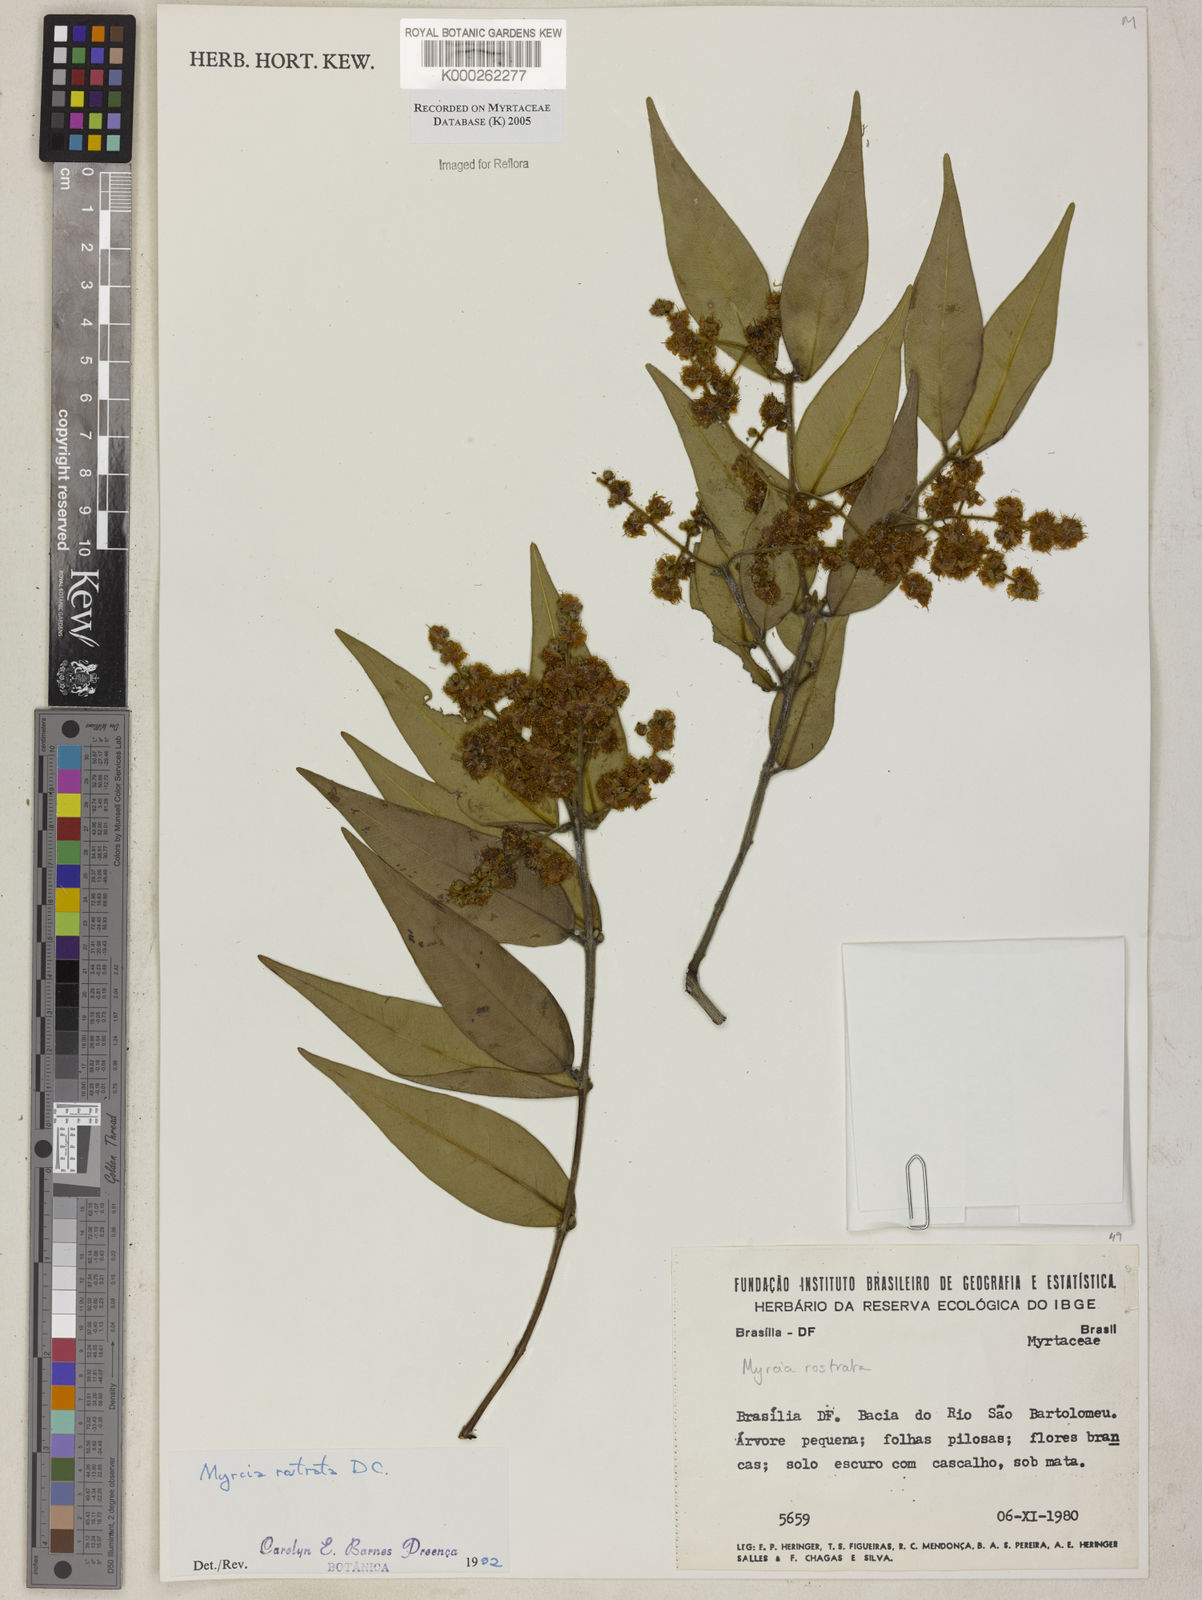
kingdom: Plantae
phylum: Tracheophyta
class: Magnoliopsida
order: Myrtales
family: Myrtaceae
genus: Myrcia
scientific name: Myrcia splendens
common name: Surinam cherry
